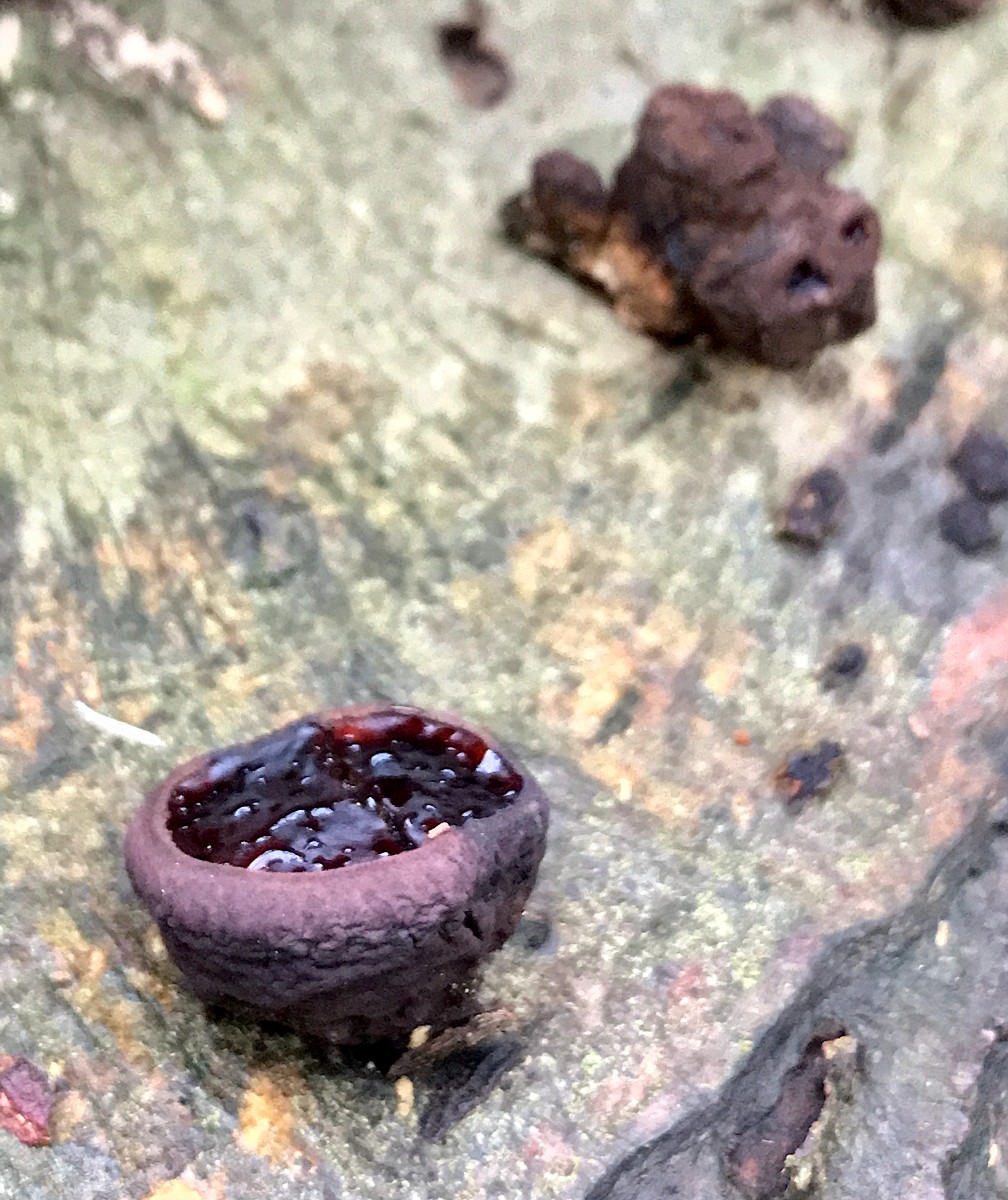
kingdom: Fungi
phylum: Ascomycota
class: Leotiomycetes
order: Phacidiales
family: Phacidiaceae
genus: Bulgaria
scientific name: Bulgaria inquinans
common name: afsmittende topsvamp
